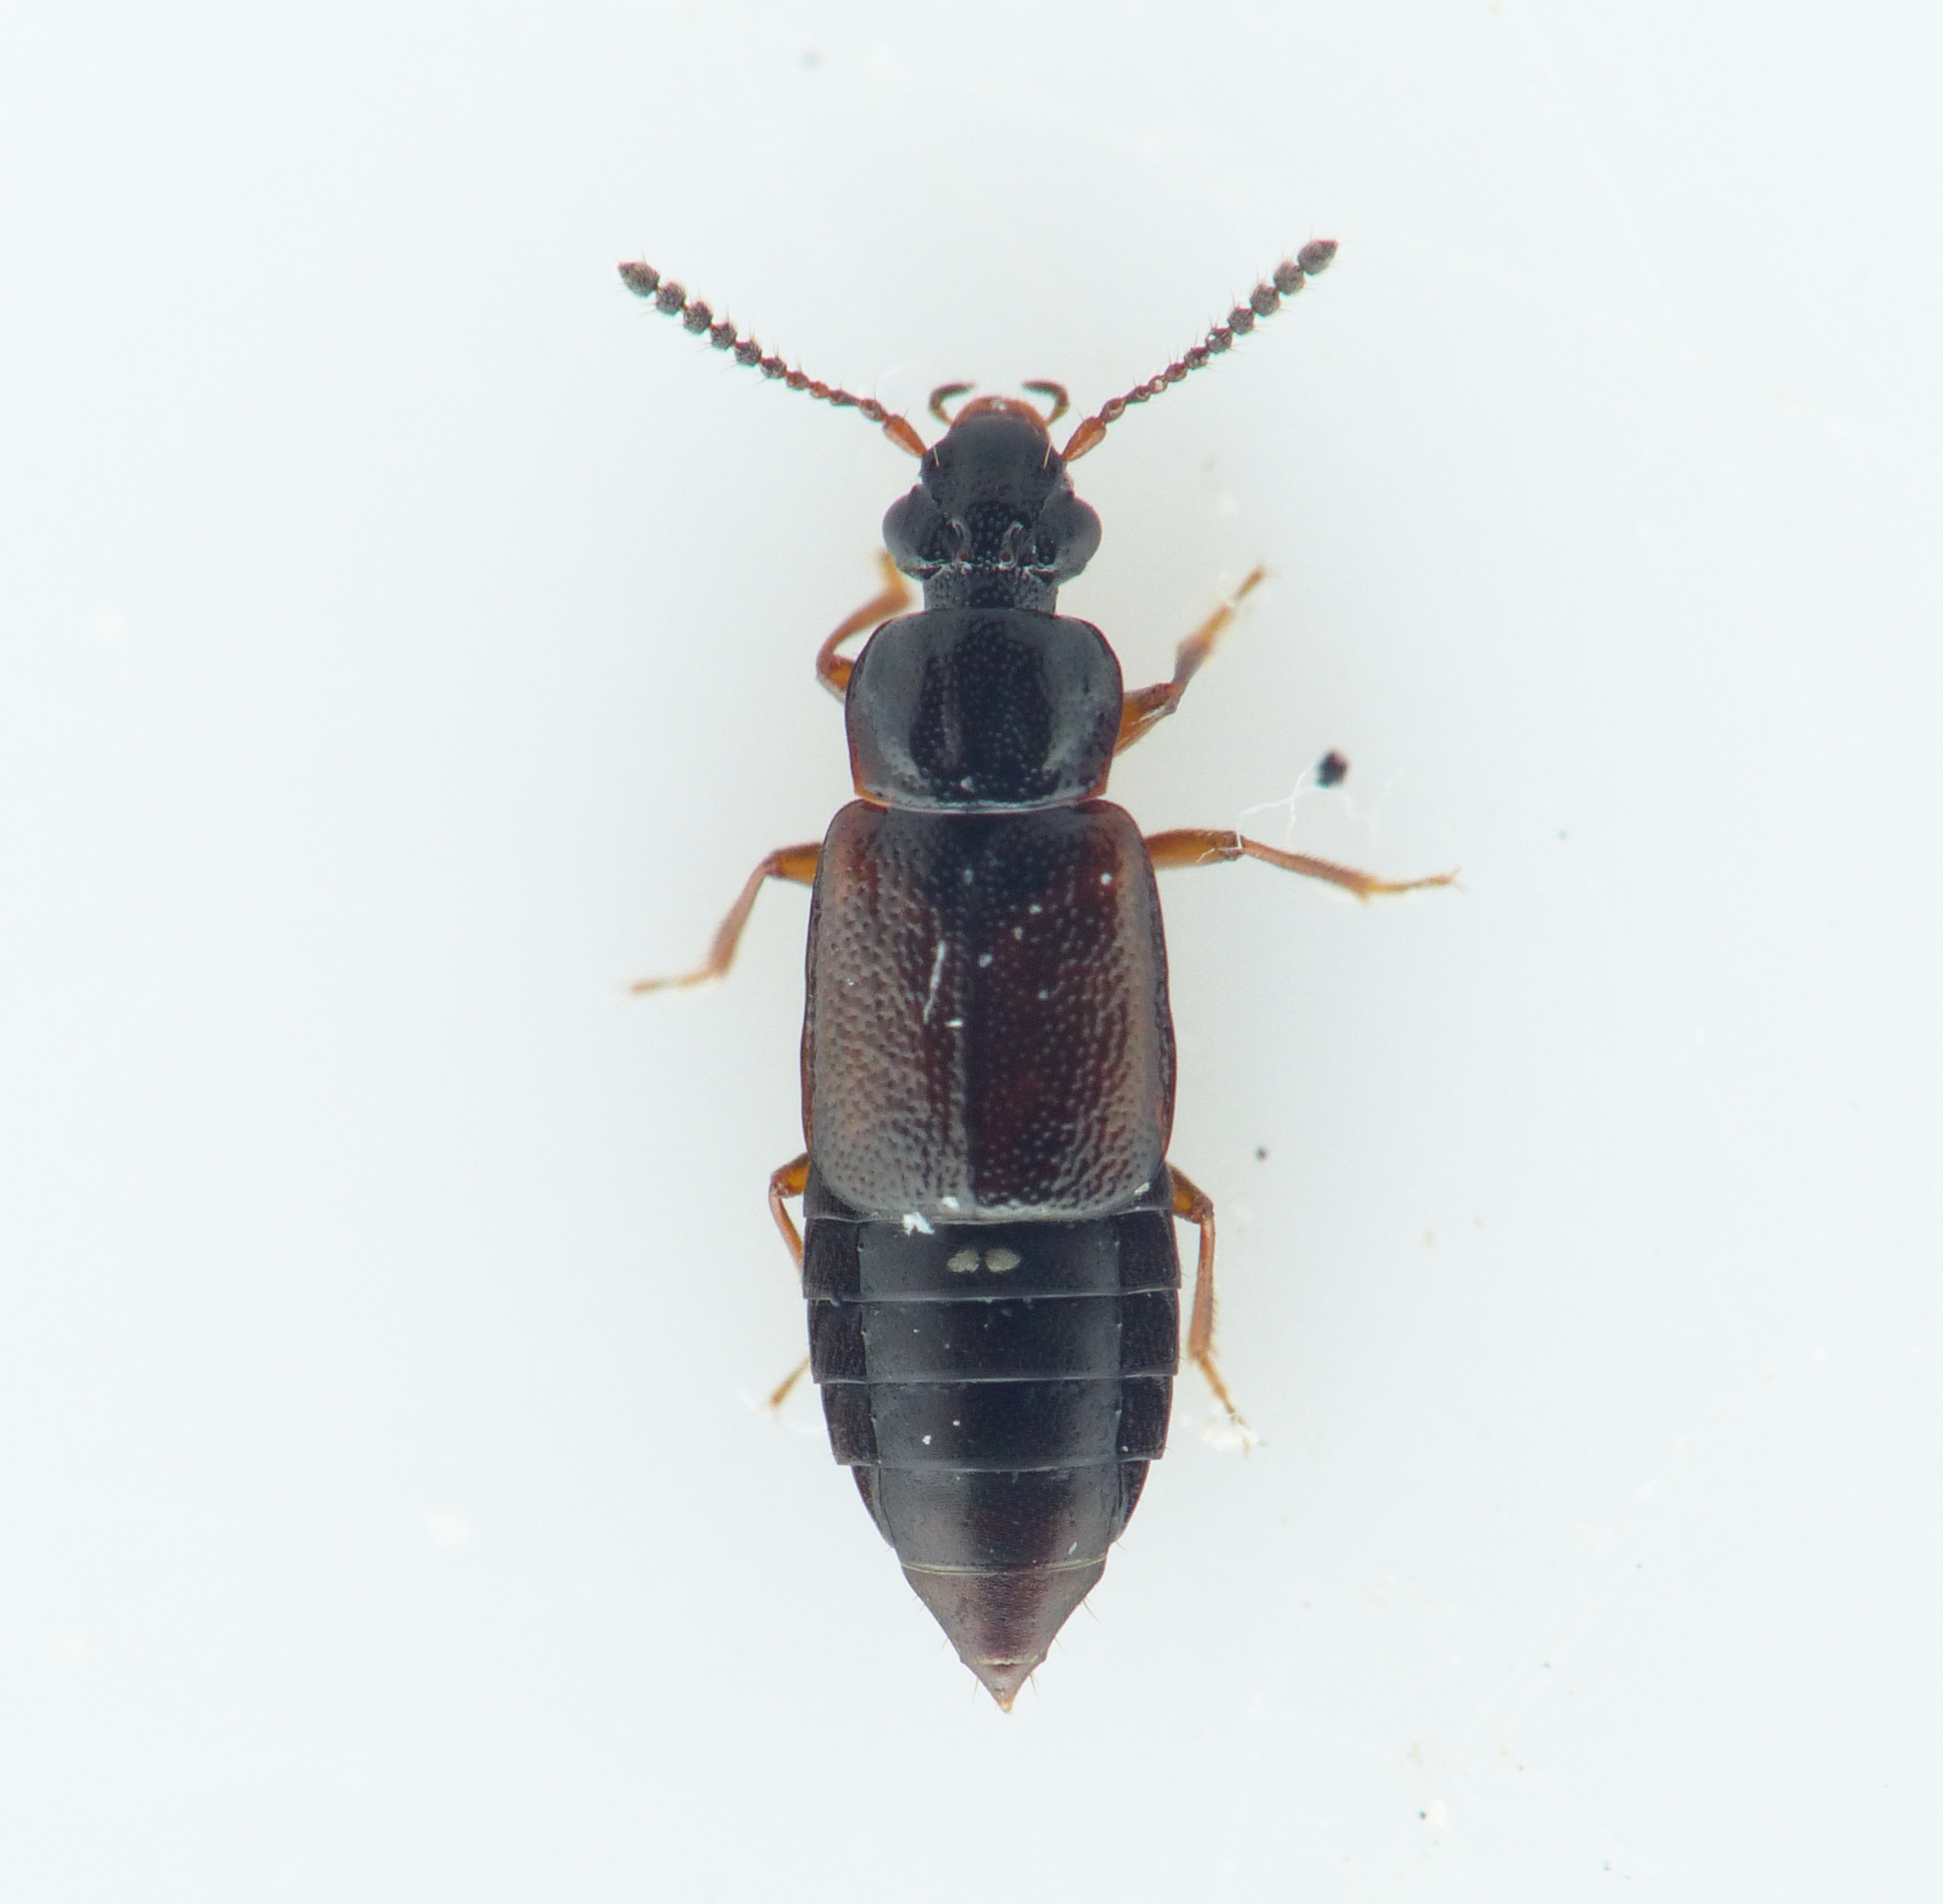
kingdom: Animalia
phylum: Arthropoda
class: Insecta
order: Coleoptera
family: Staphylinidae
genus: Omalium
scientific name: Omalium rivulare
